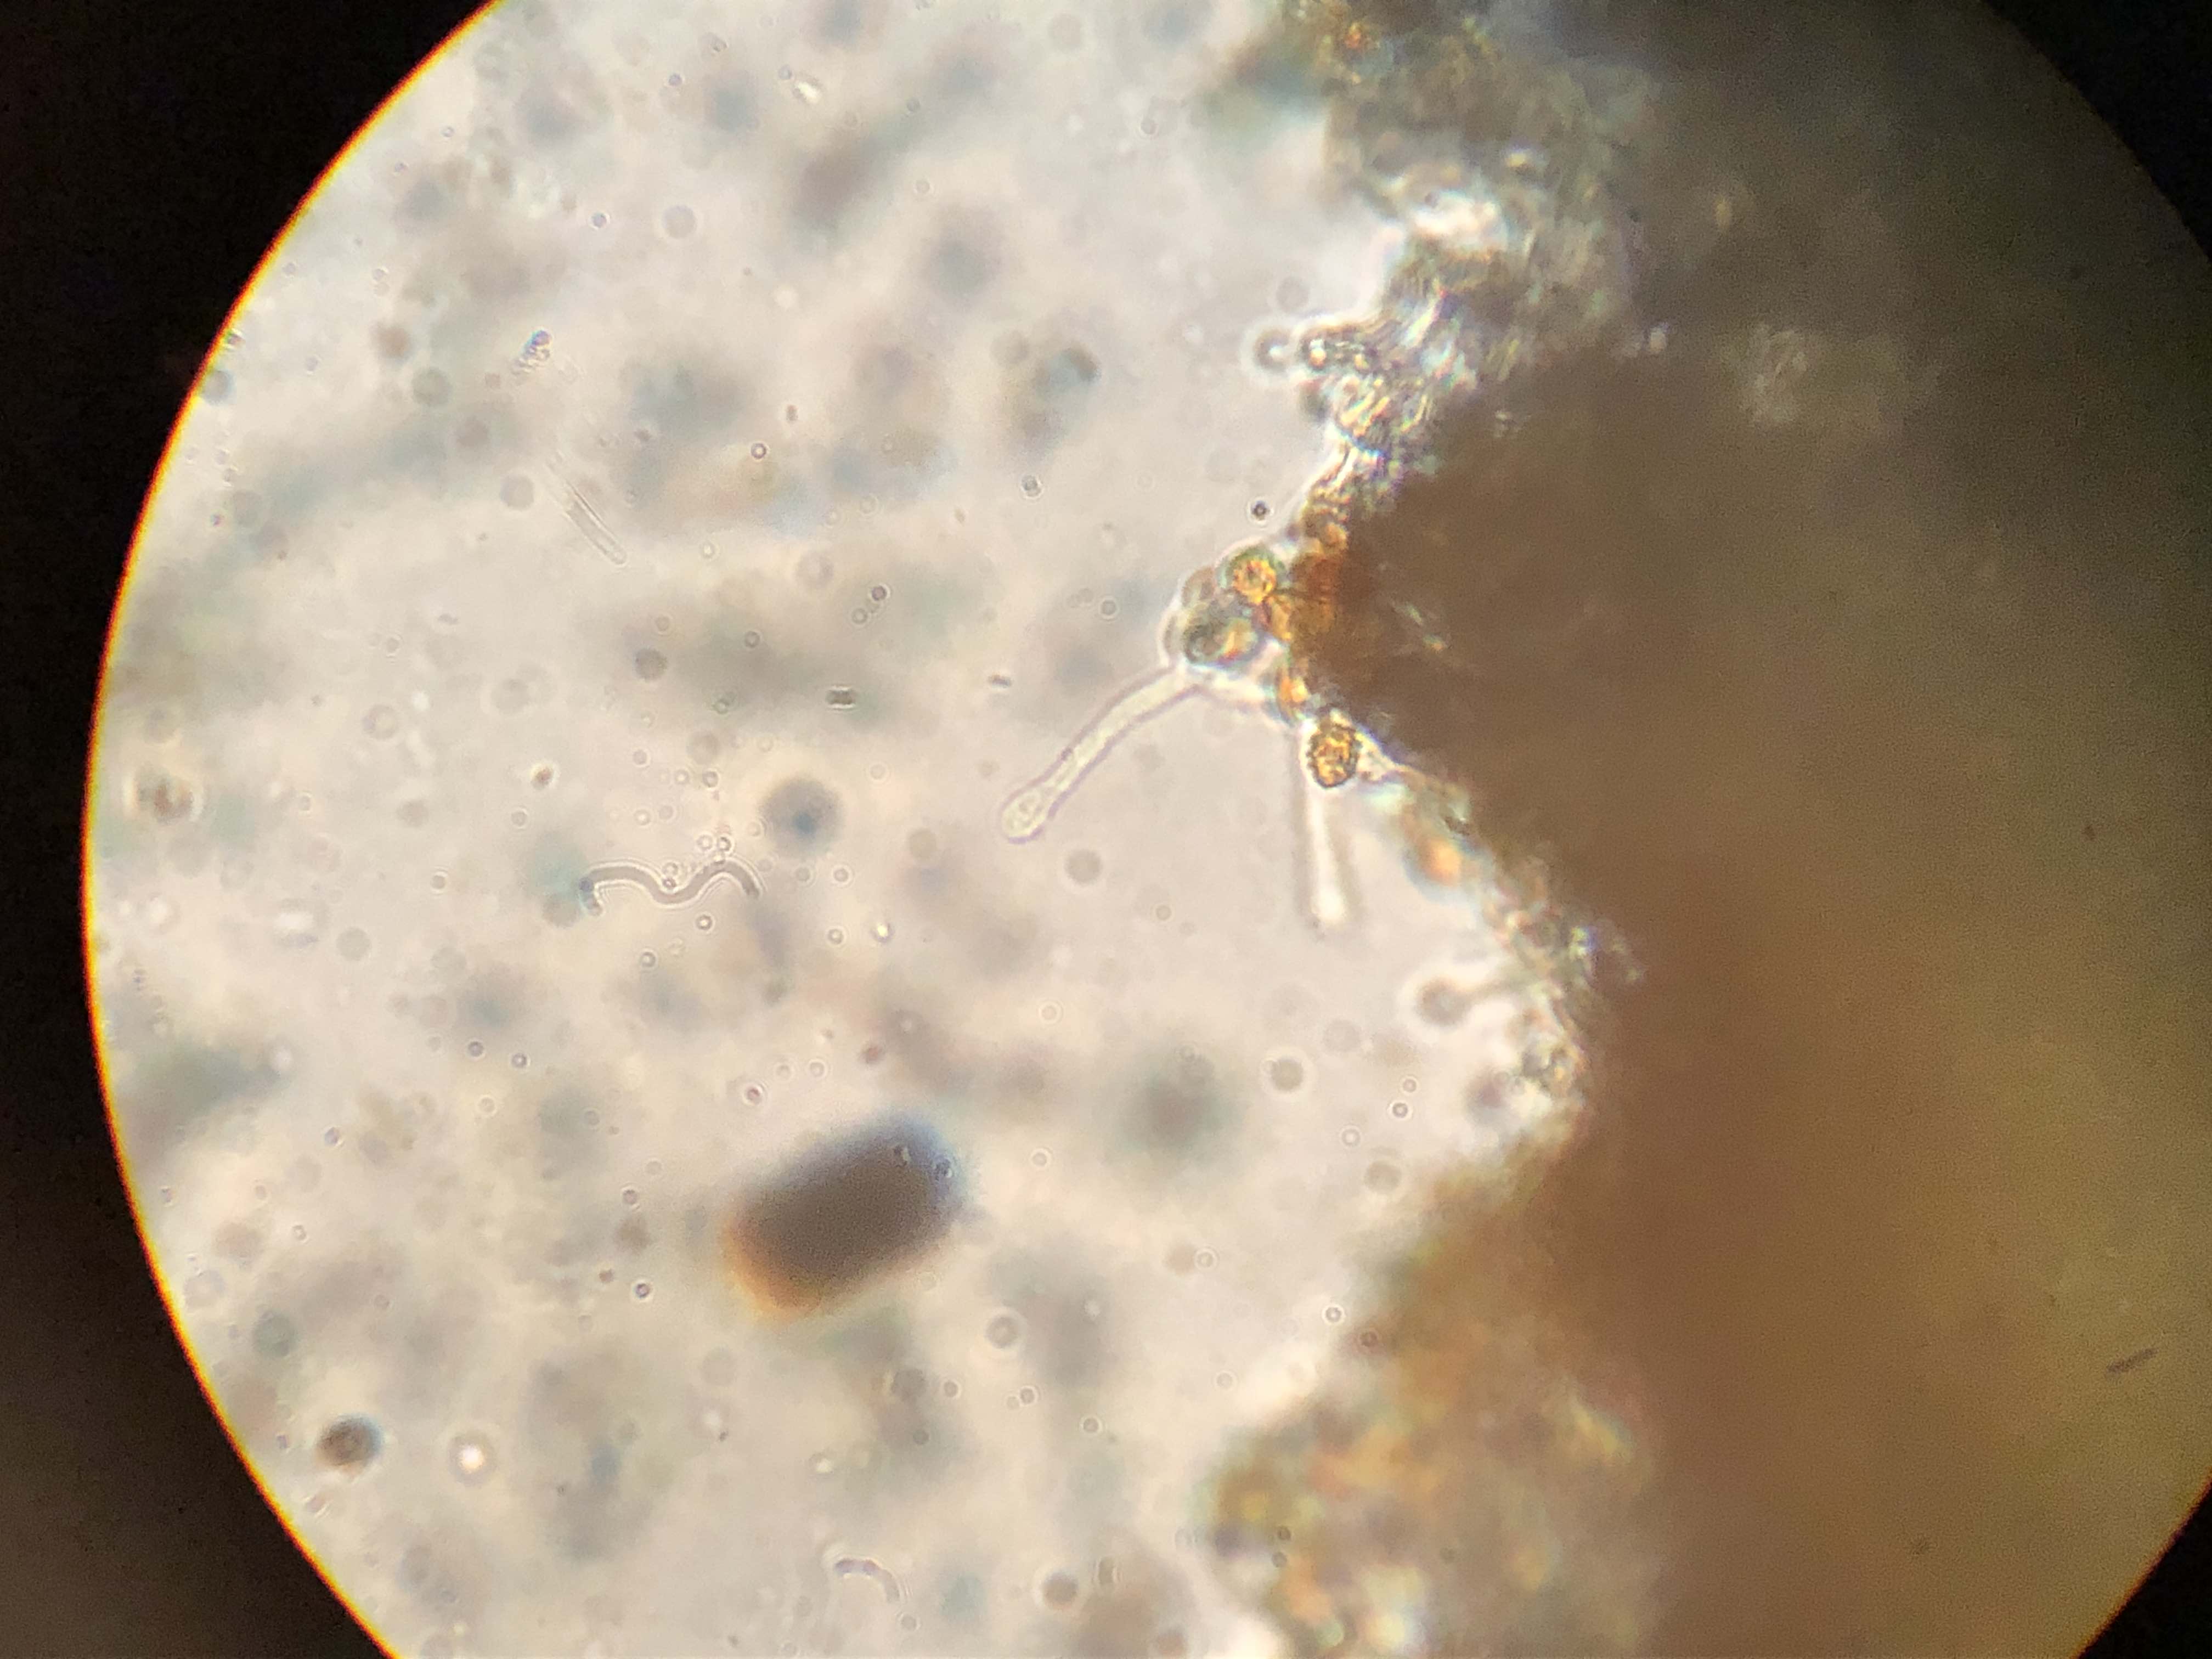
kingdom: Fungi
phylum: Basidiomycota
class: Agaricomycetes
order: Agaricales
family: Hymenogastraceae
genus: Gymnopilus
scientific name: Gymnopilus flavus
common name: græs-flammehat
